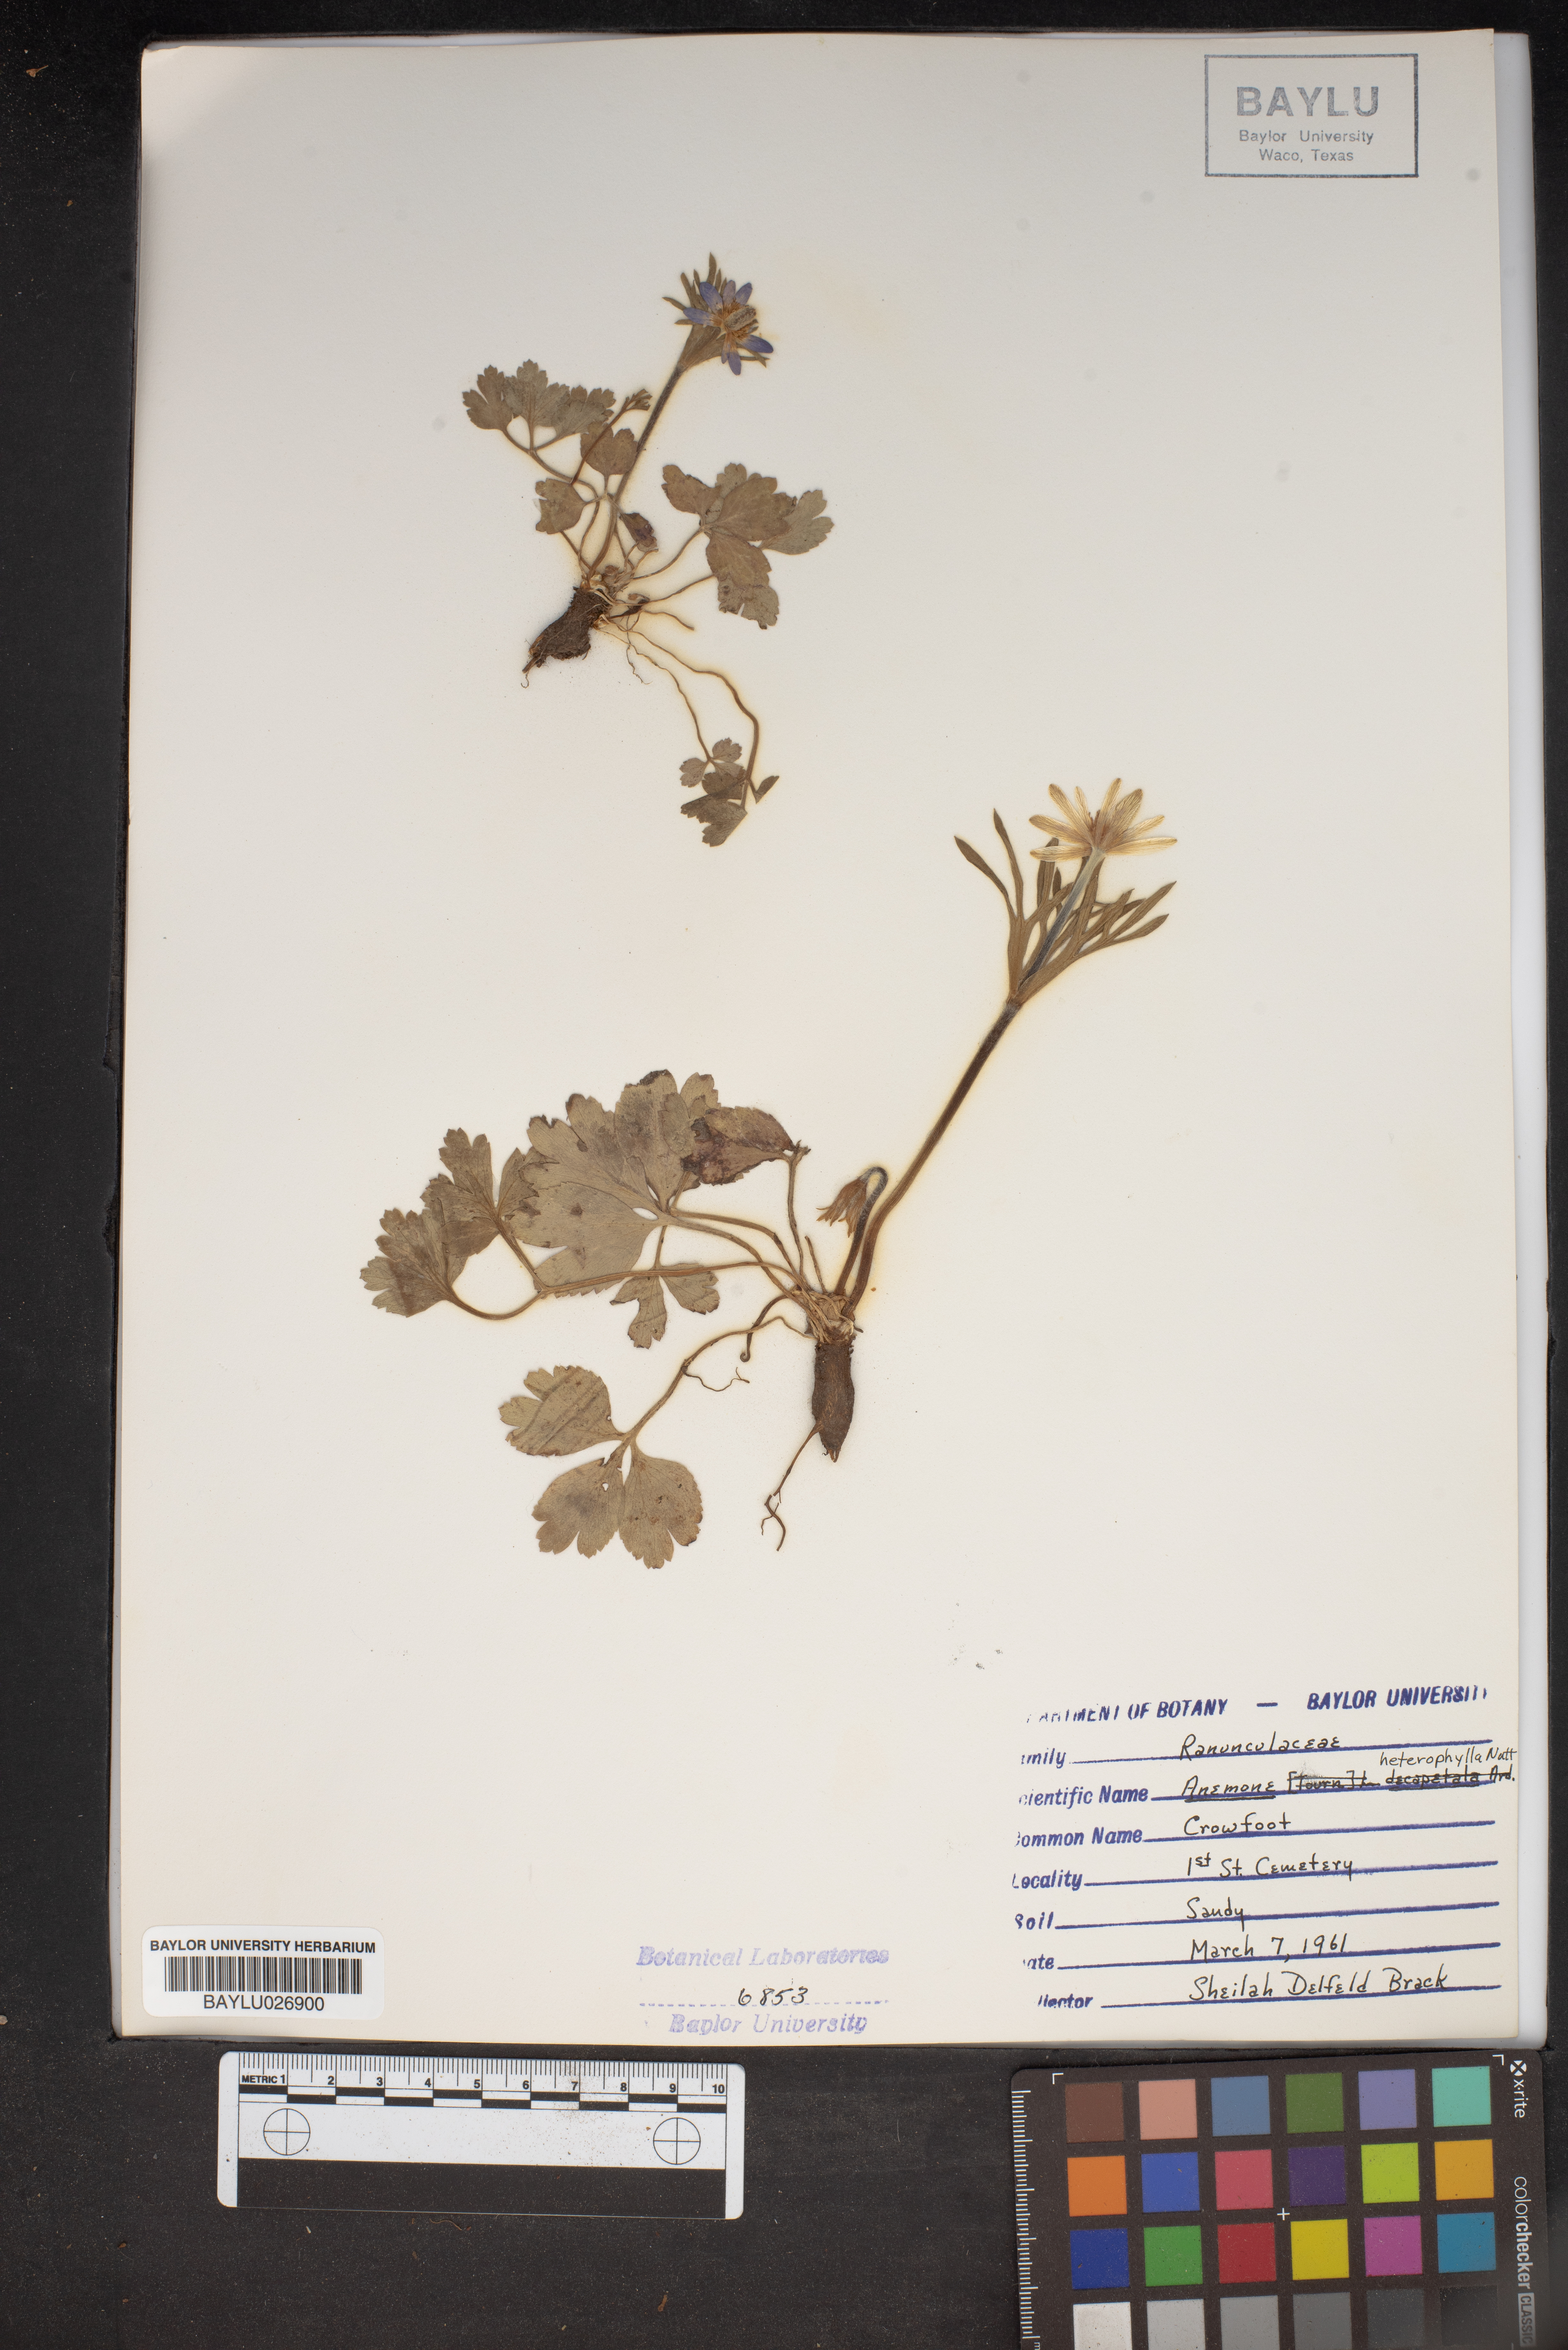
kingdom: Plantae
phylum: Tracheophyta
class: Magnoliopsida
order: Ranunculales
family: Ranunculaceae
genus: Anemone
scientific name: Anemone heterophylla
